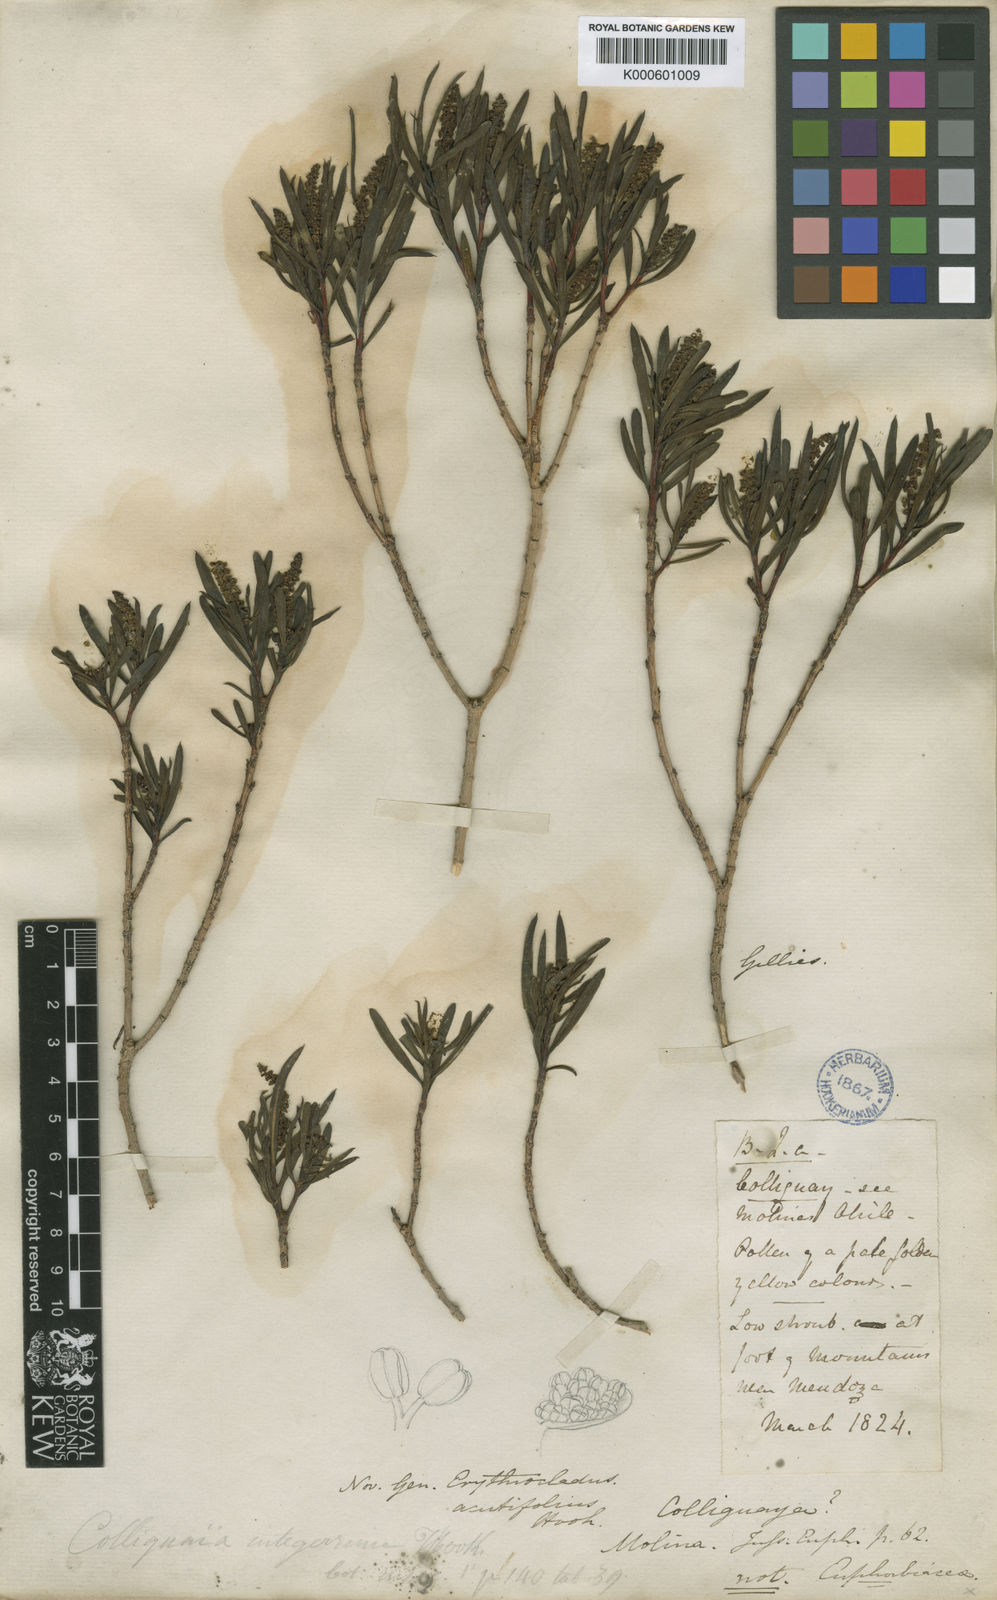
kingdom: Plantae
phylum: Tracheophyta
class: Magnoliopsida
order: Malpighiales
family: Euphorbiaceae
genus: Colliguaja
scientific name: Colliguaja integerrima
